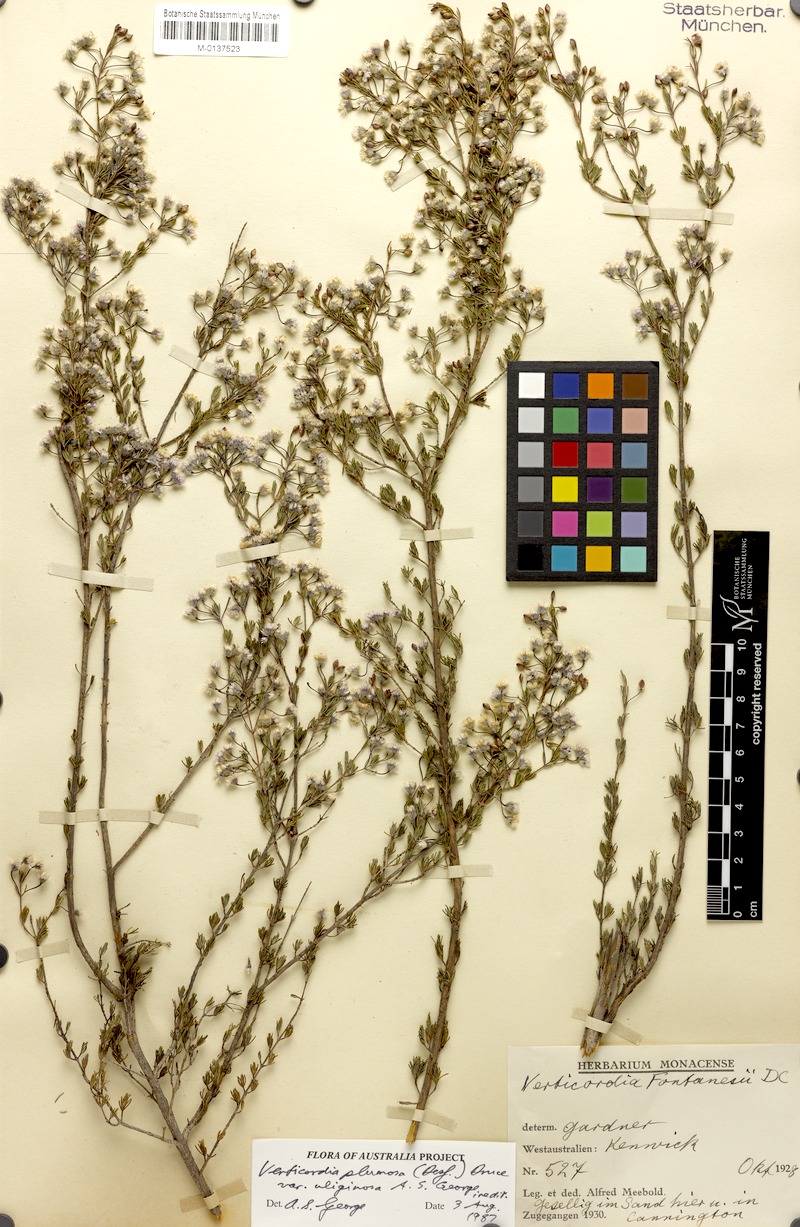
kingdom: Plantae
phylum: Tracheophyta
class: Magnoliopsida
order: Myrtales
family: Myrtaceae
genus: Verticordia
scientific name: Verticordia plumosa
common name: Plume feather-flower
